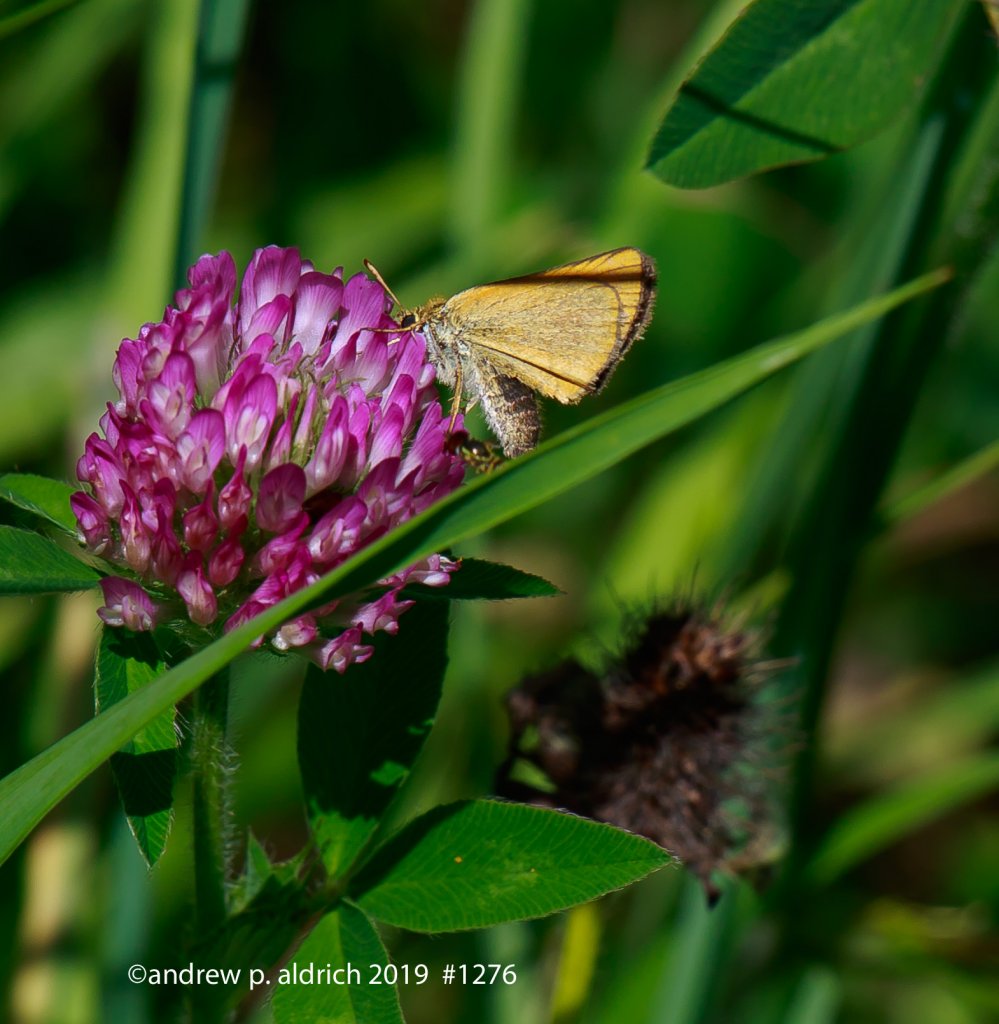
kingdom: Animalia
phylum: Arthropoda
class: Insecta
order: Lepidoptera
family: Hesperiidae
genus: Ancyloxypha
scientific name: Ancyloxypha numitor
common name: Least Skipper
